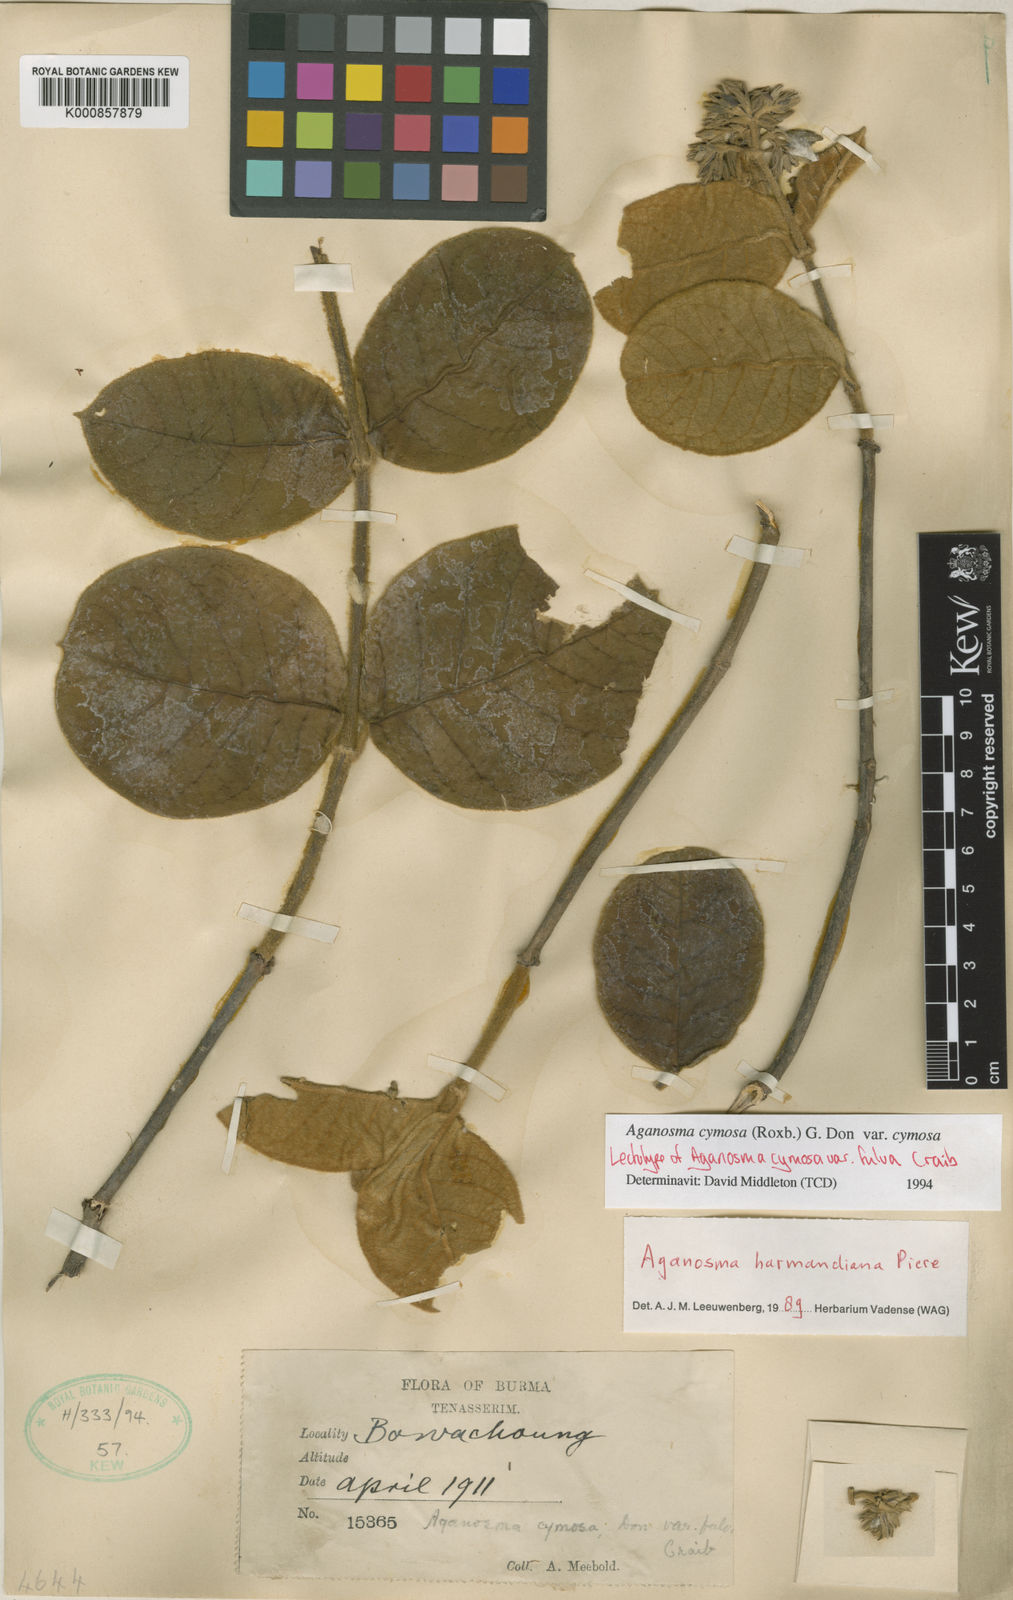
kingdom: Plantae
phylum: Tracheophyta
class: Magnoliopsida
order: Gentianales
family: Apocynaceae
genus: Aganosma
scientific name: Aganosma cymosa
